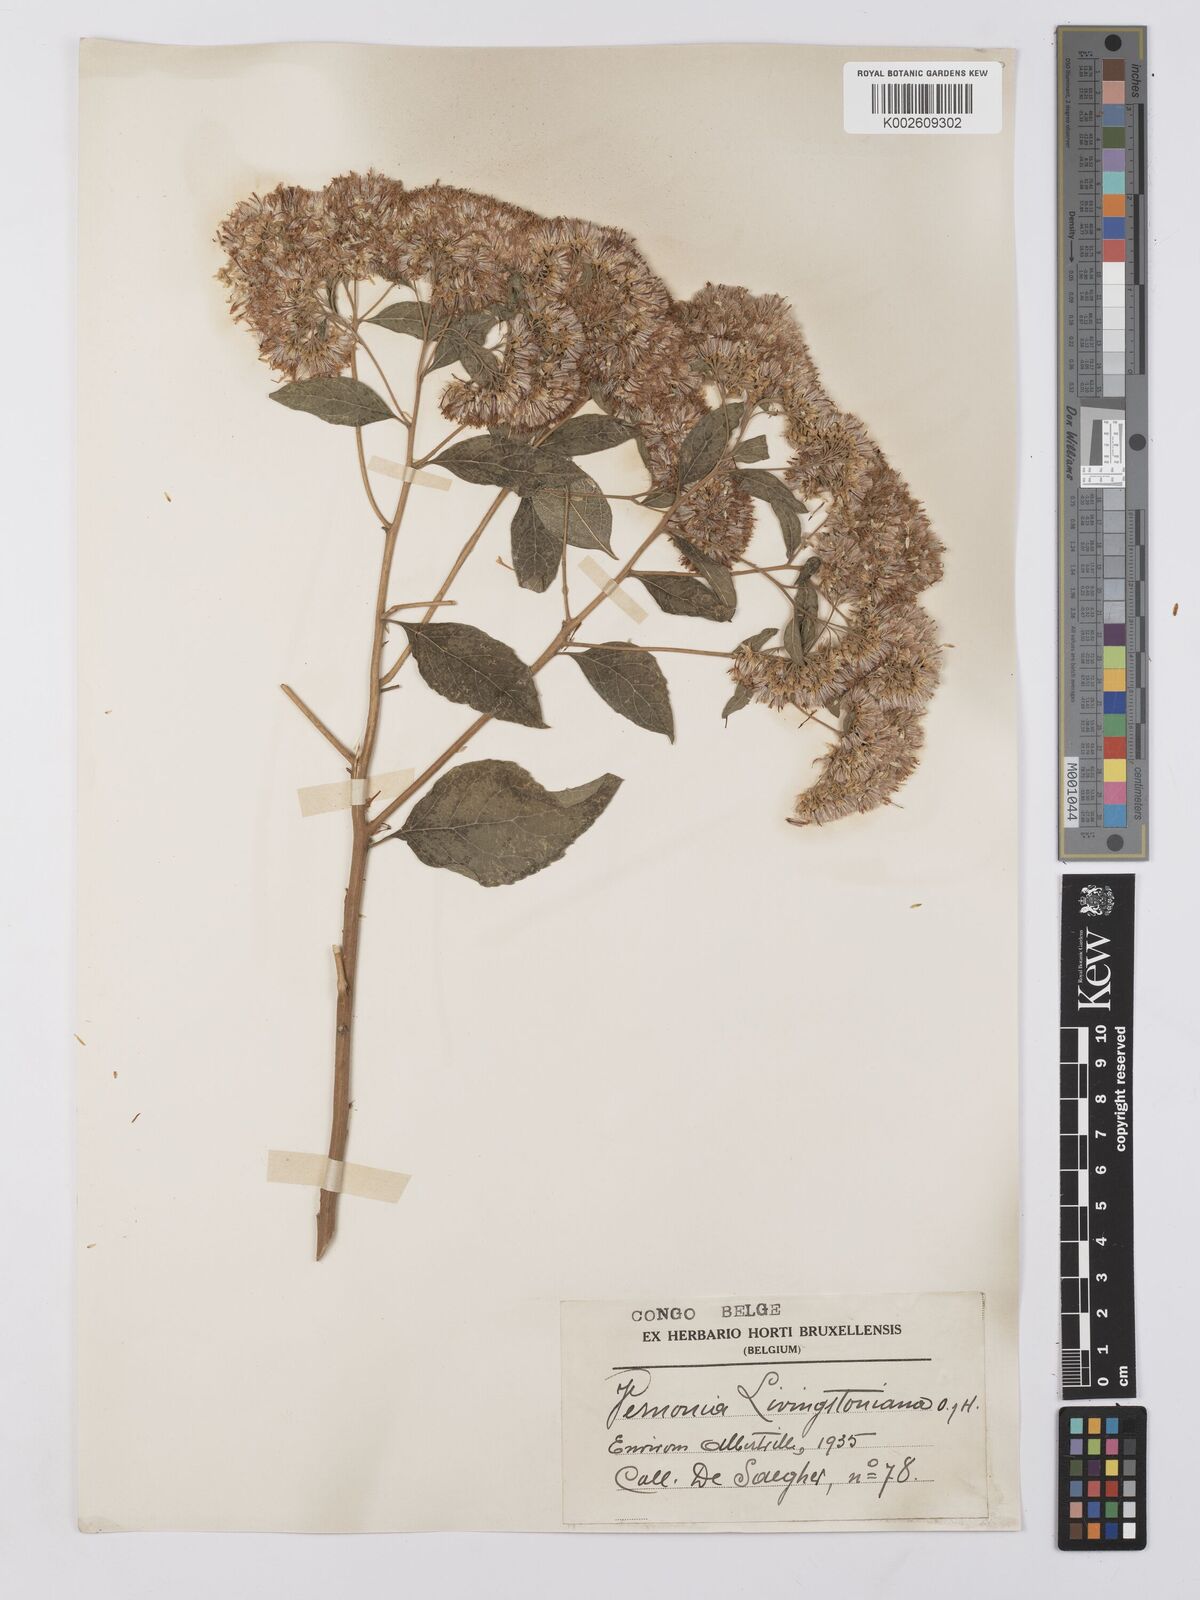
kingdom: Plantae
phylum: Tracheophyta
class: Magnoliopsida
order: Asterales
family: Asteraceae
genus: Gymnanthemum
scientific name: Gymnanthemum thomsonianum
